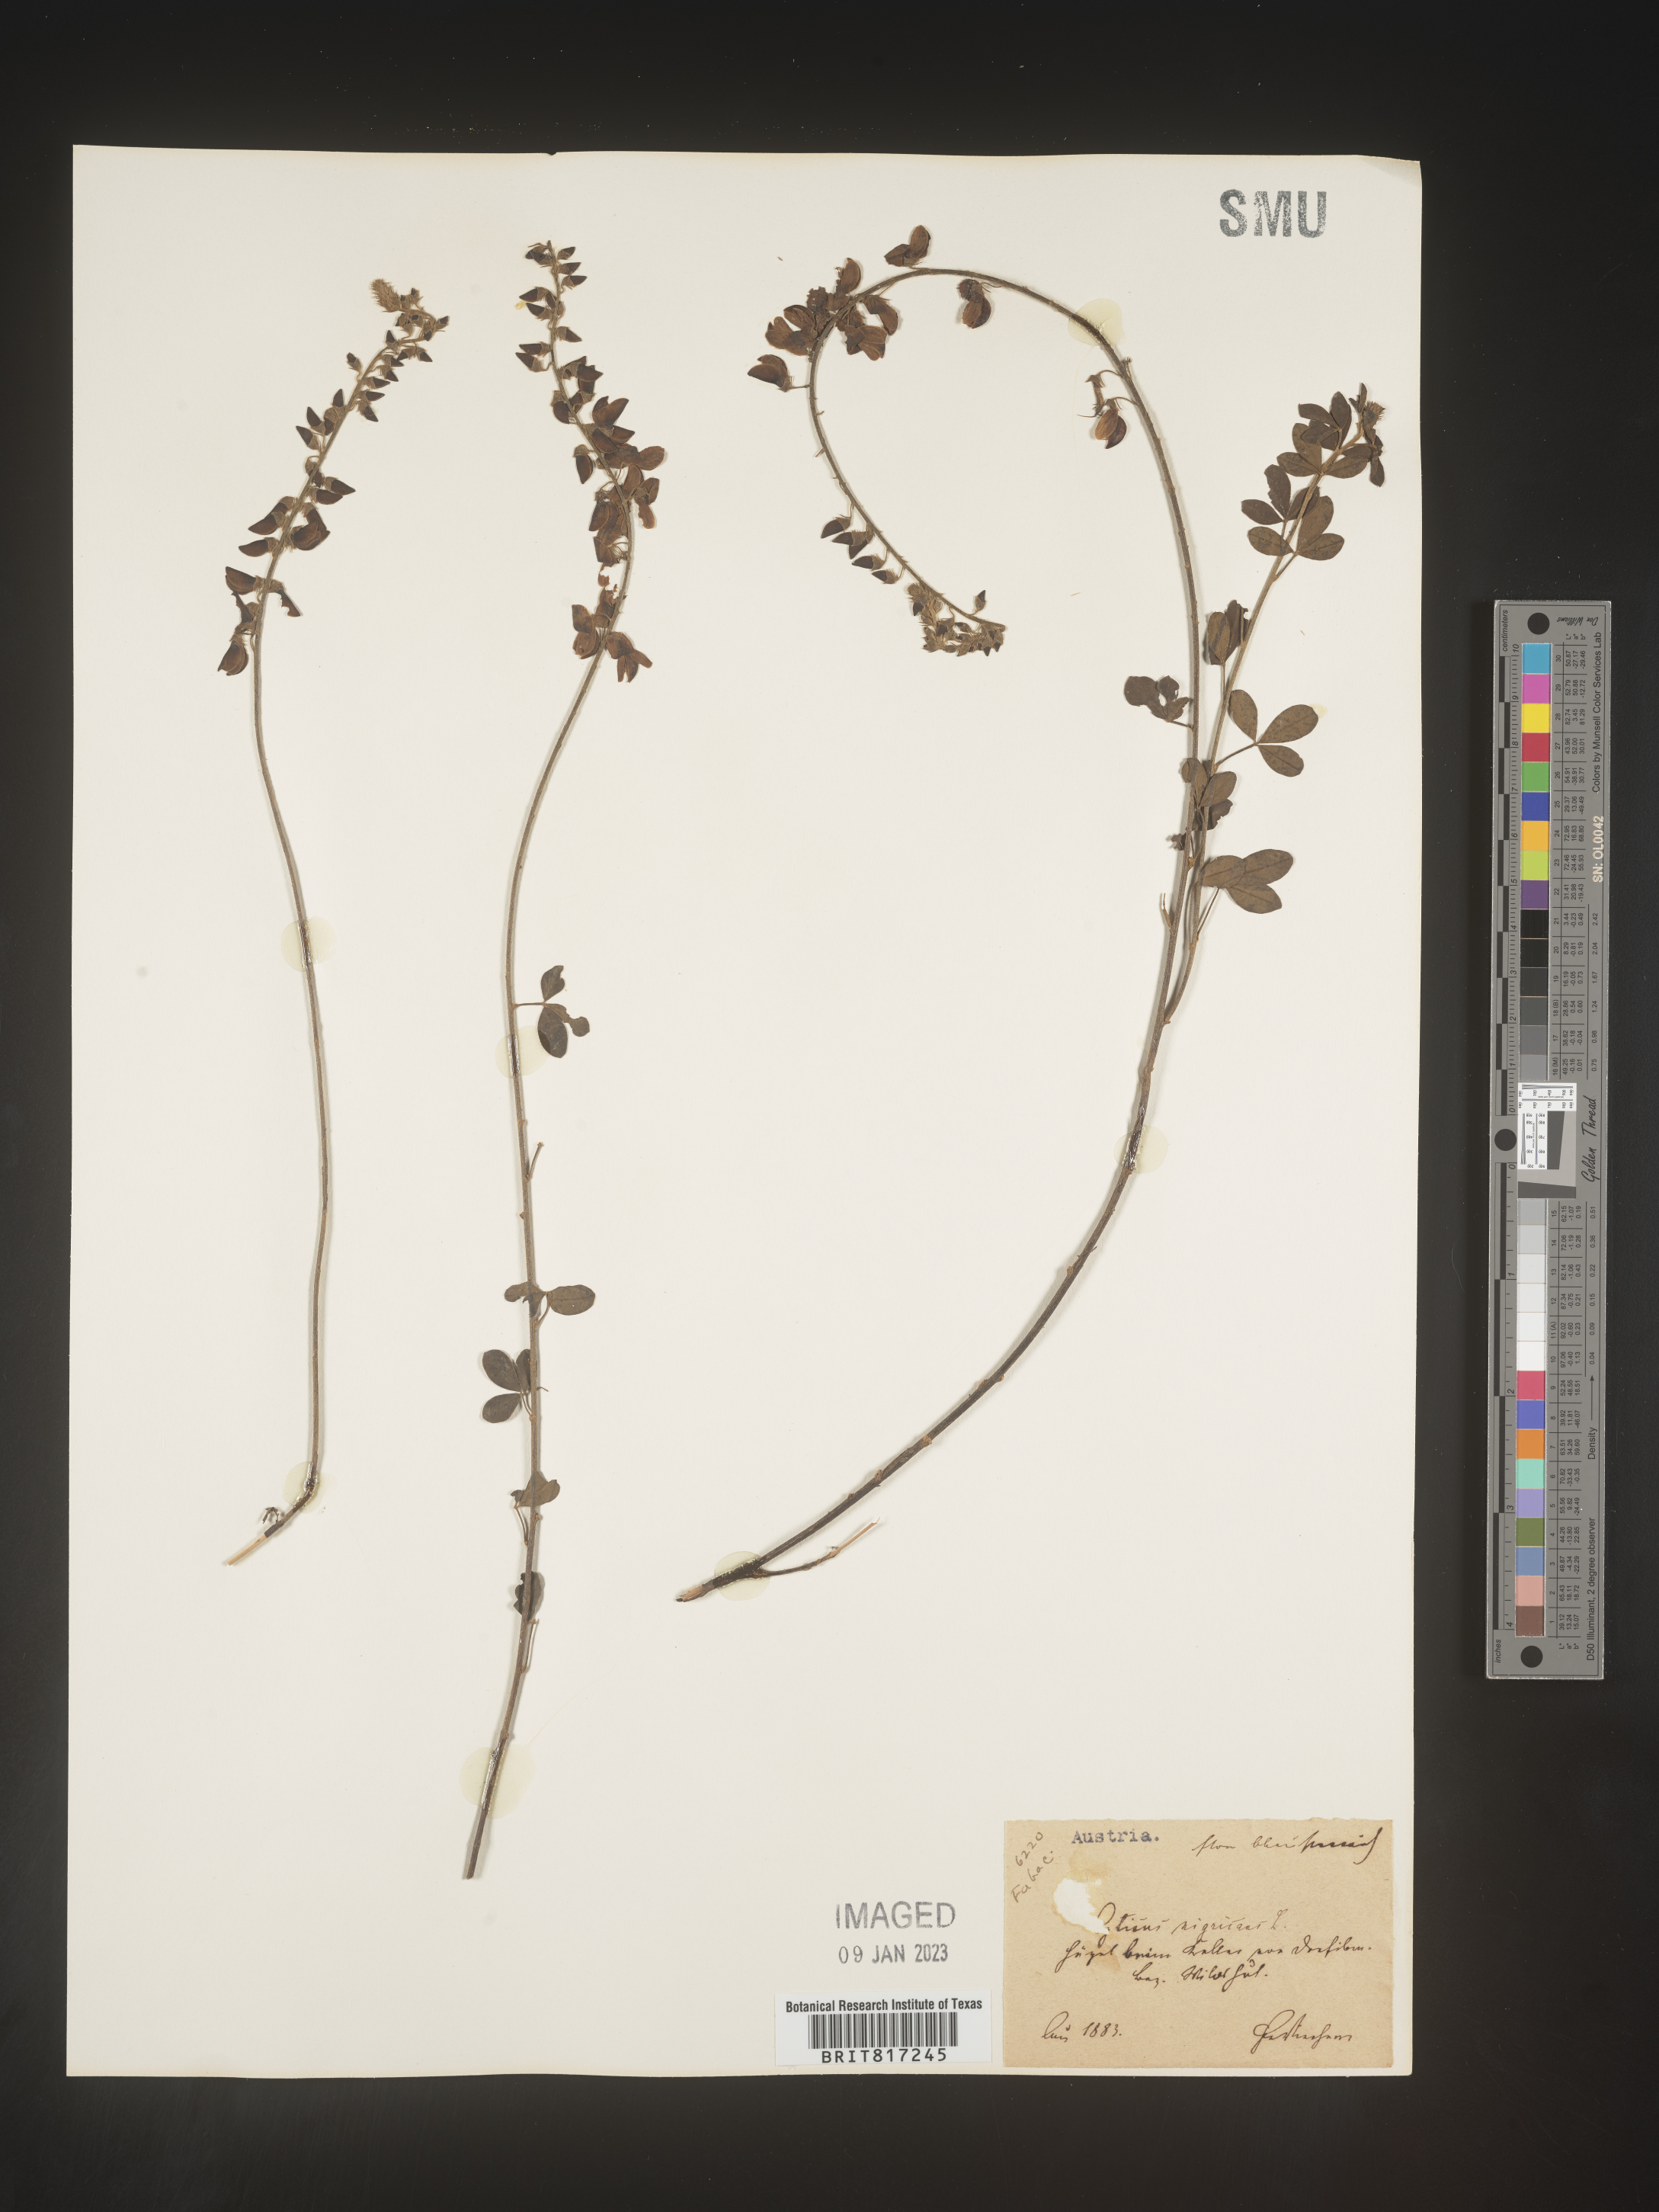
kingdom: Plantae
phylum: Tracheophyta
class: Magnoliopsida
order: Fabales
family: Fabaceae
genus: Cytisus
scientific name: Cytisus
